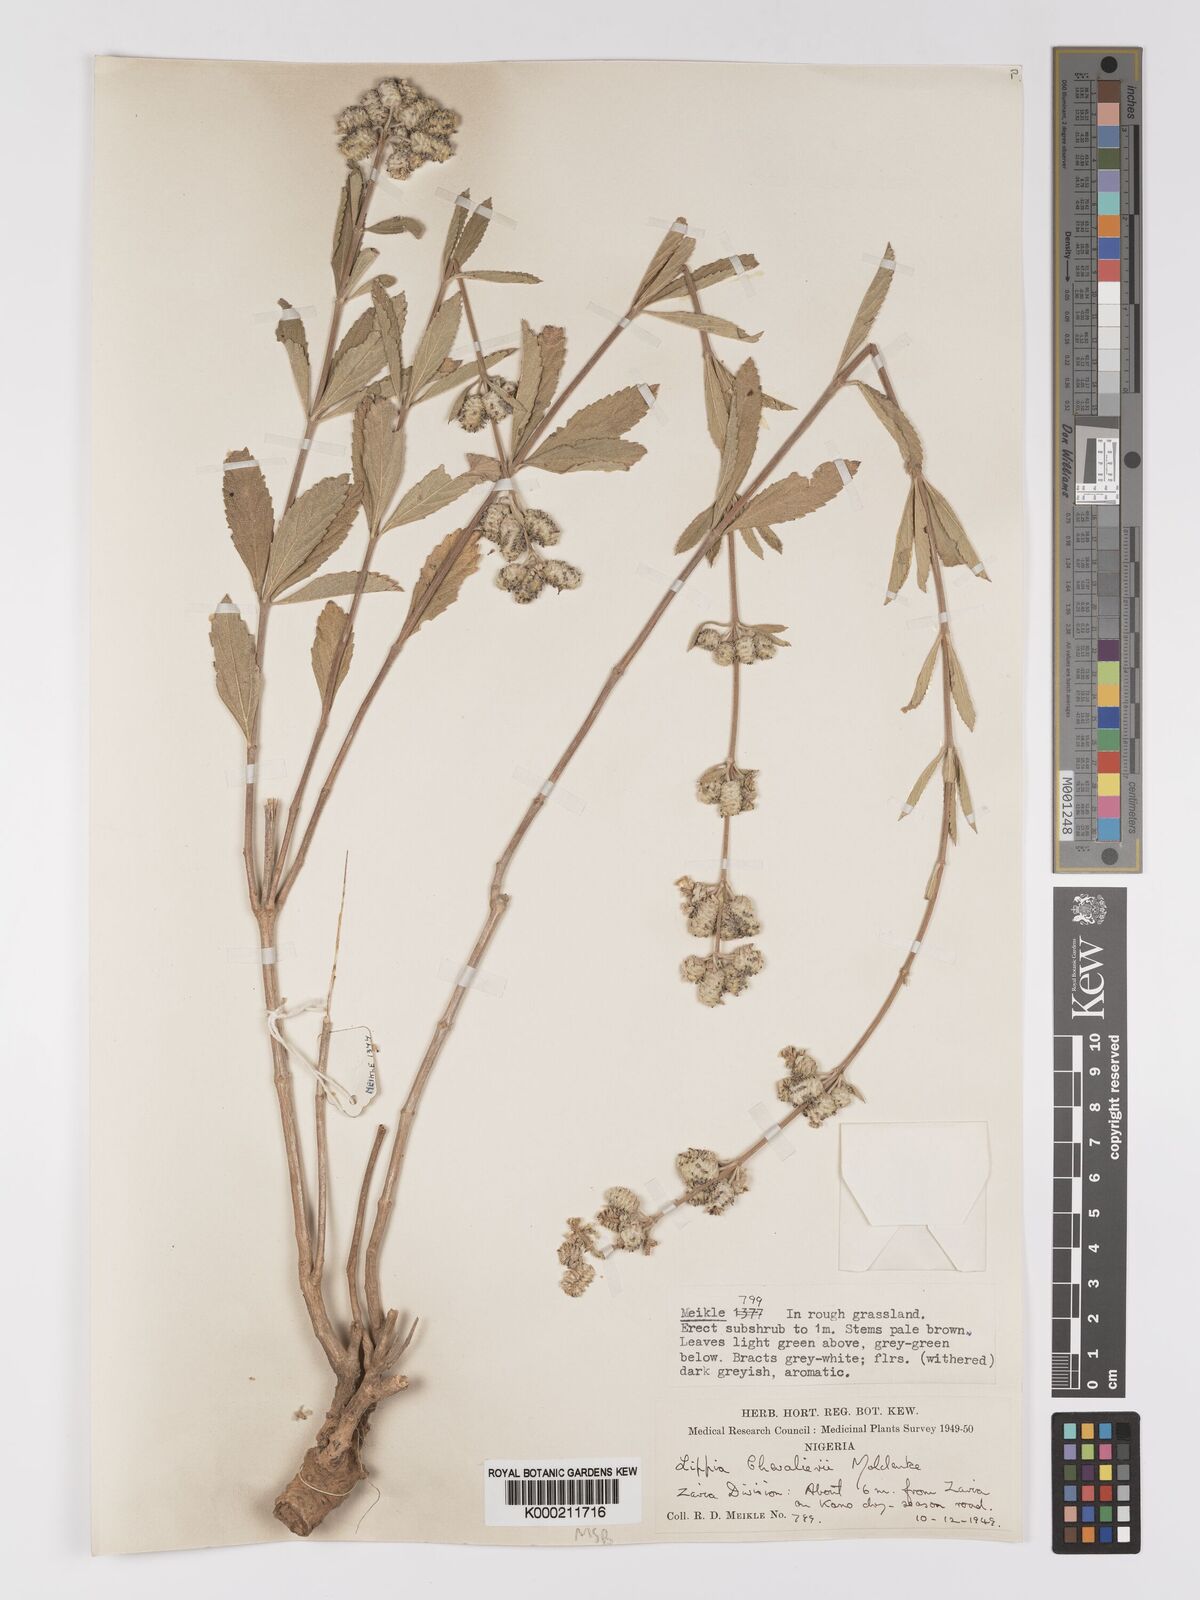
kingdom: Plantae
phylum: Tracheophyta
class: Magnoliopsida
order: Lamiales
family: Verbenaceae
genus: Lippia
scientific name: Lippia chevalieri
